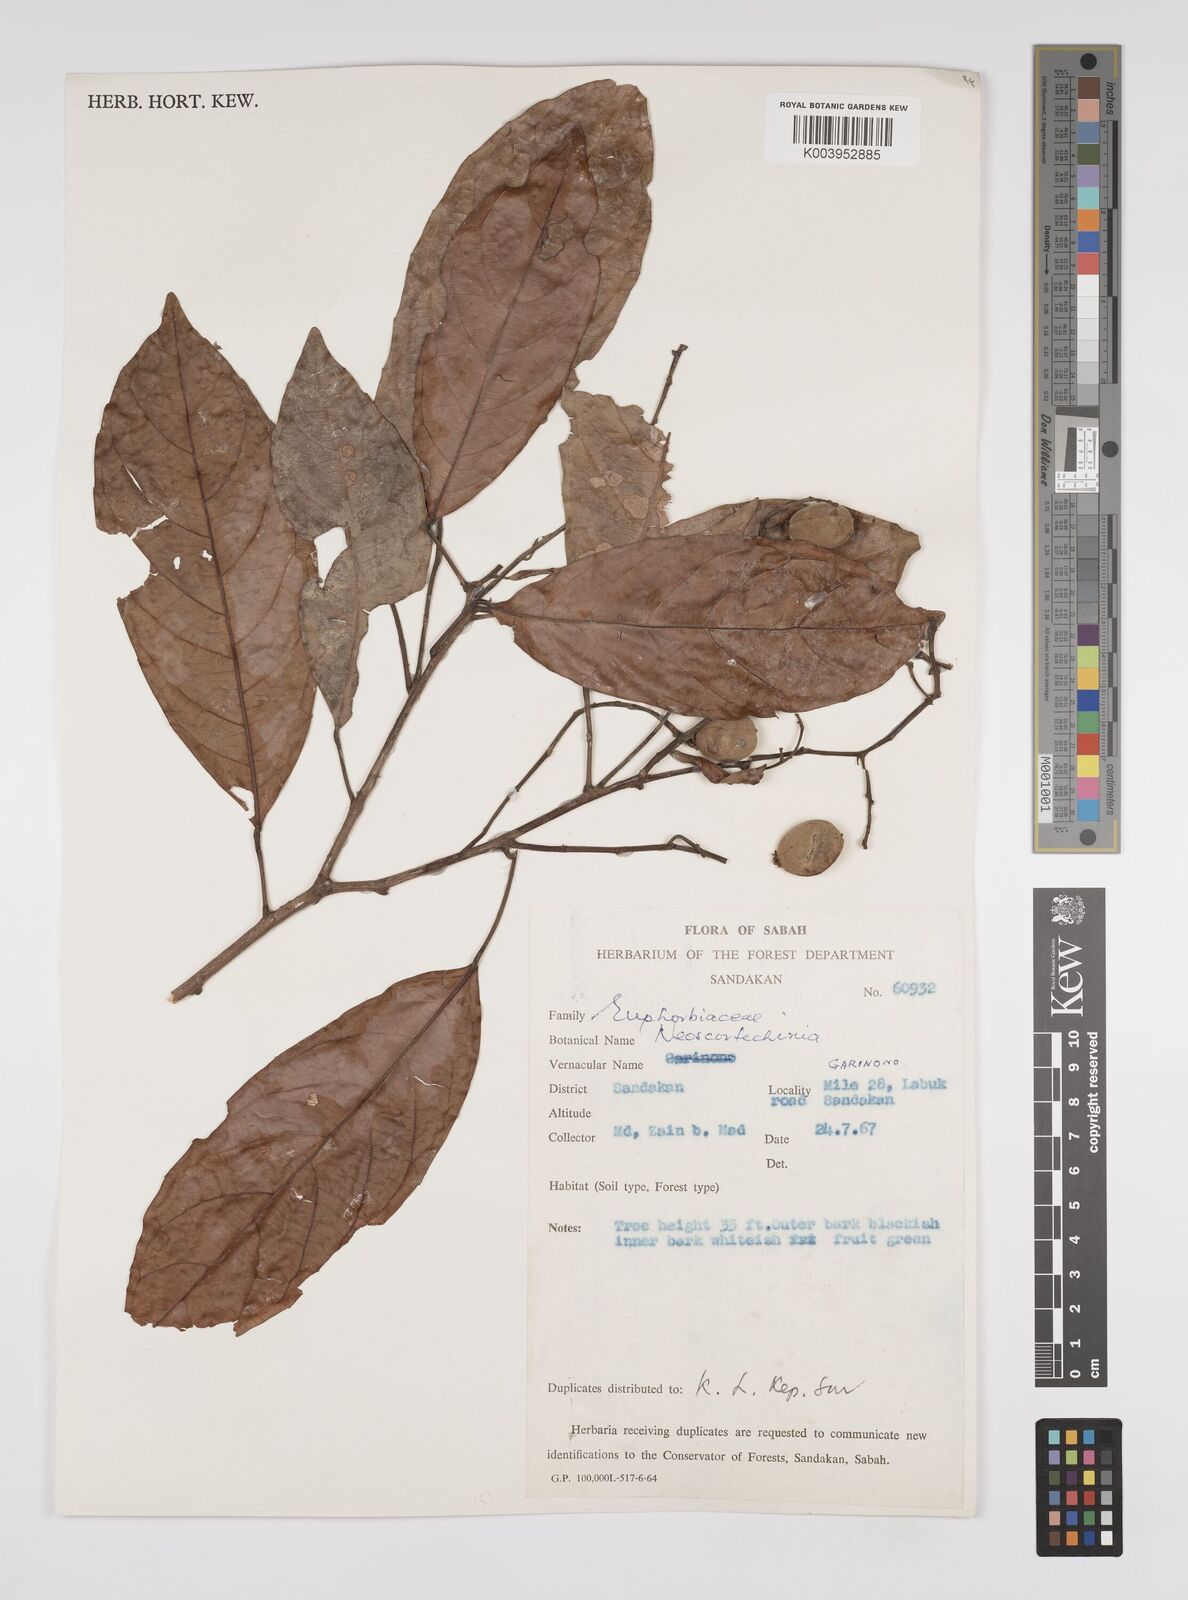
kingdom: Plantae
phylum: Tracheophyta
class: Magnoliopsida
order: Malpighiales
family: Euphorbiaceae
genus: Neoscortechinia
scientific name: Neoscortechinia philippinensis
